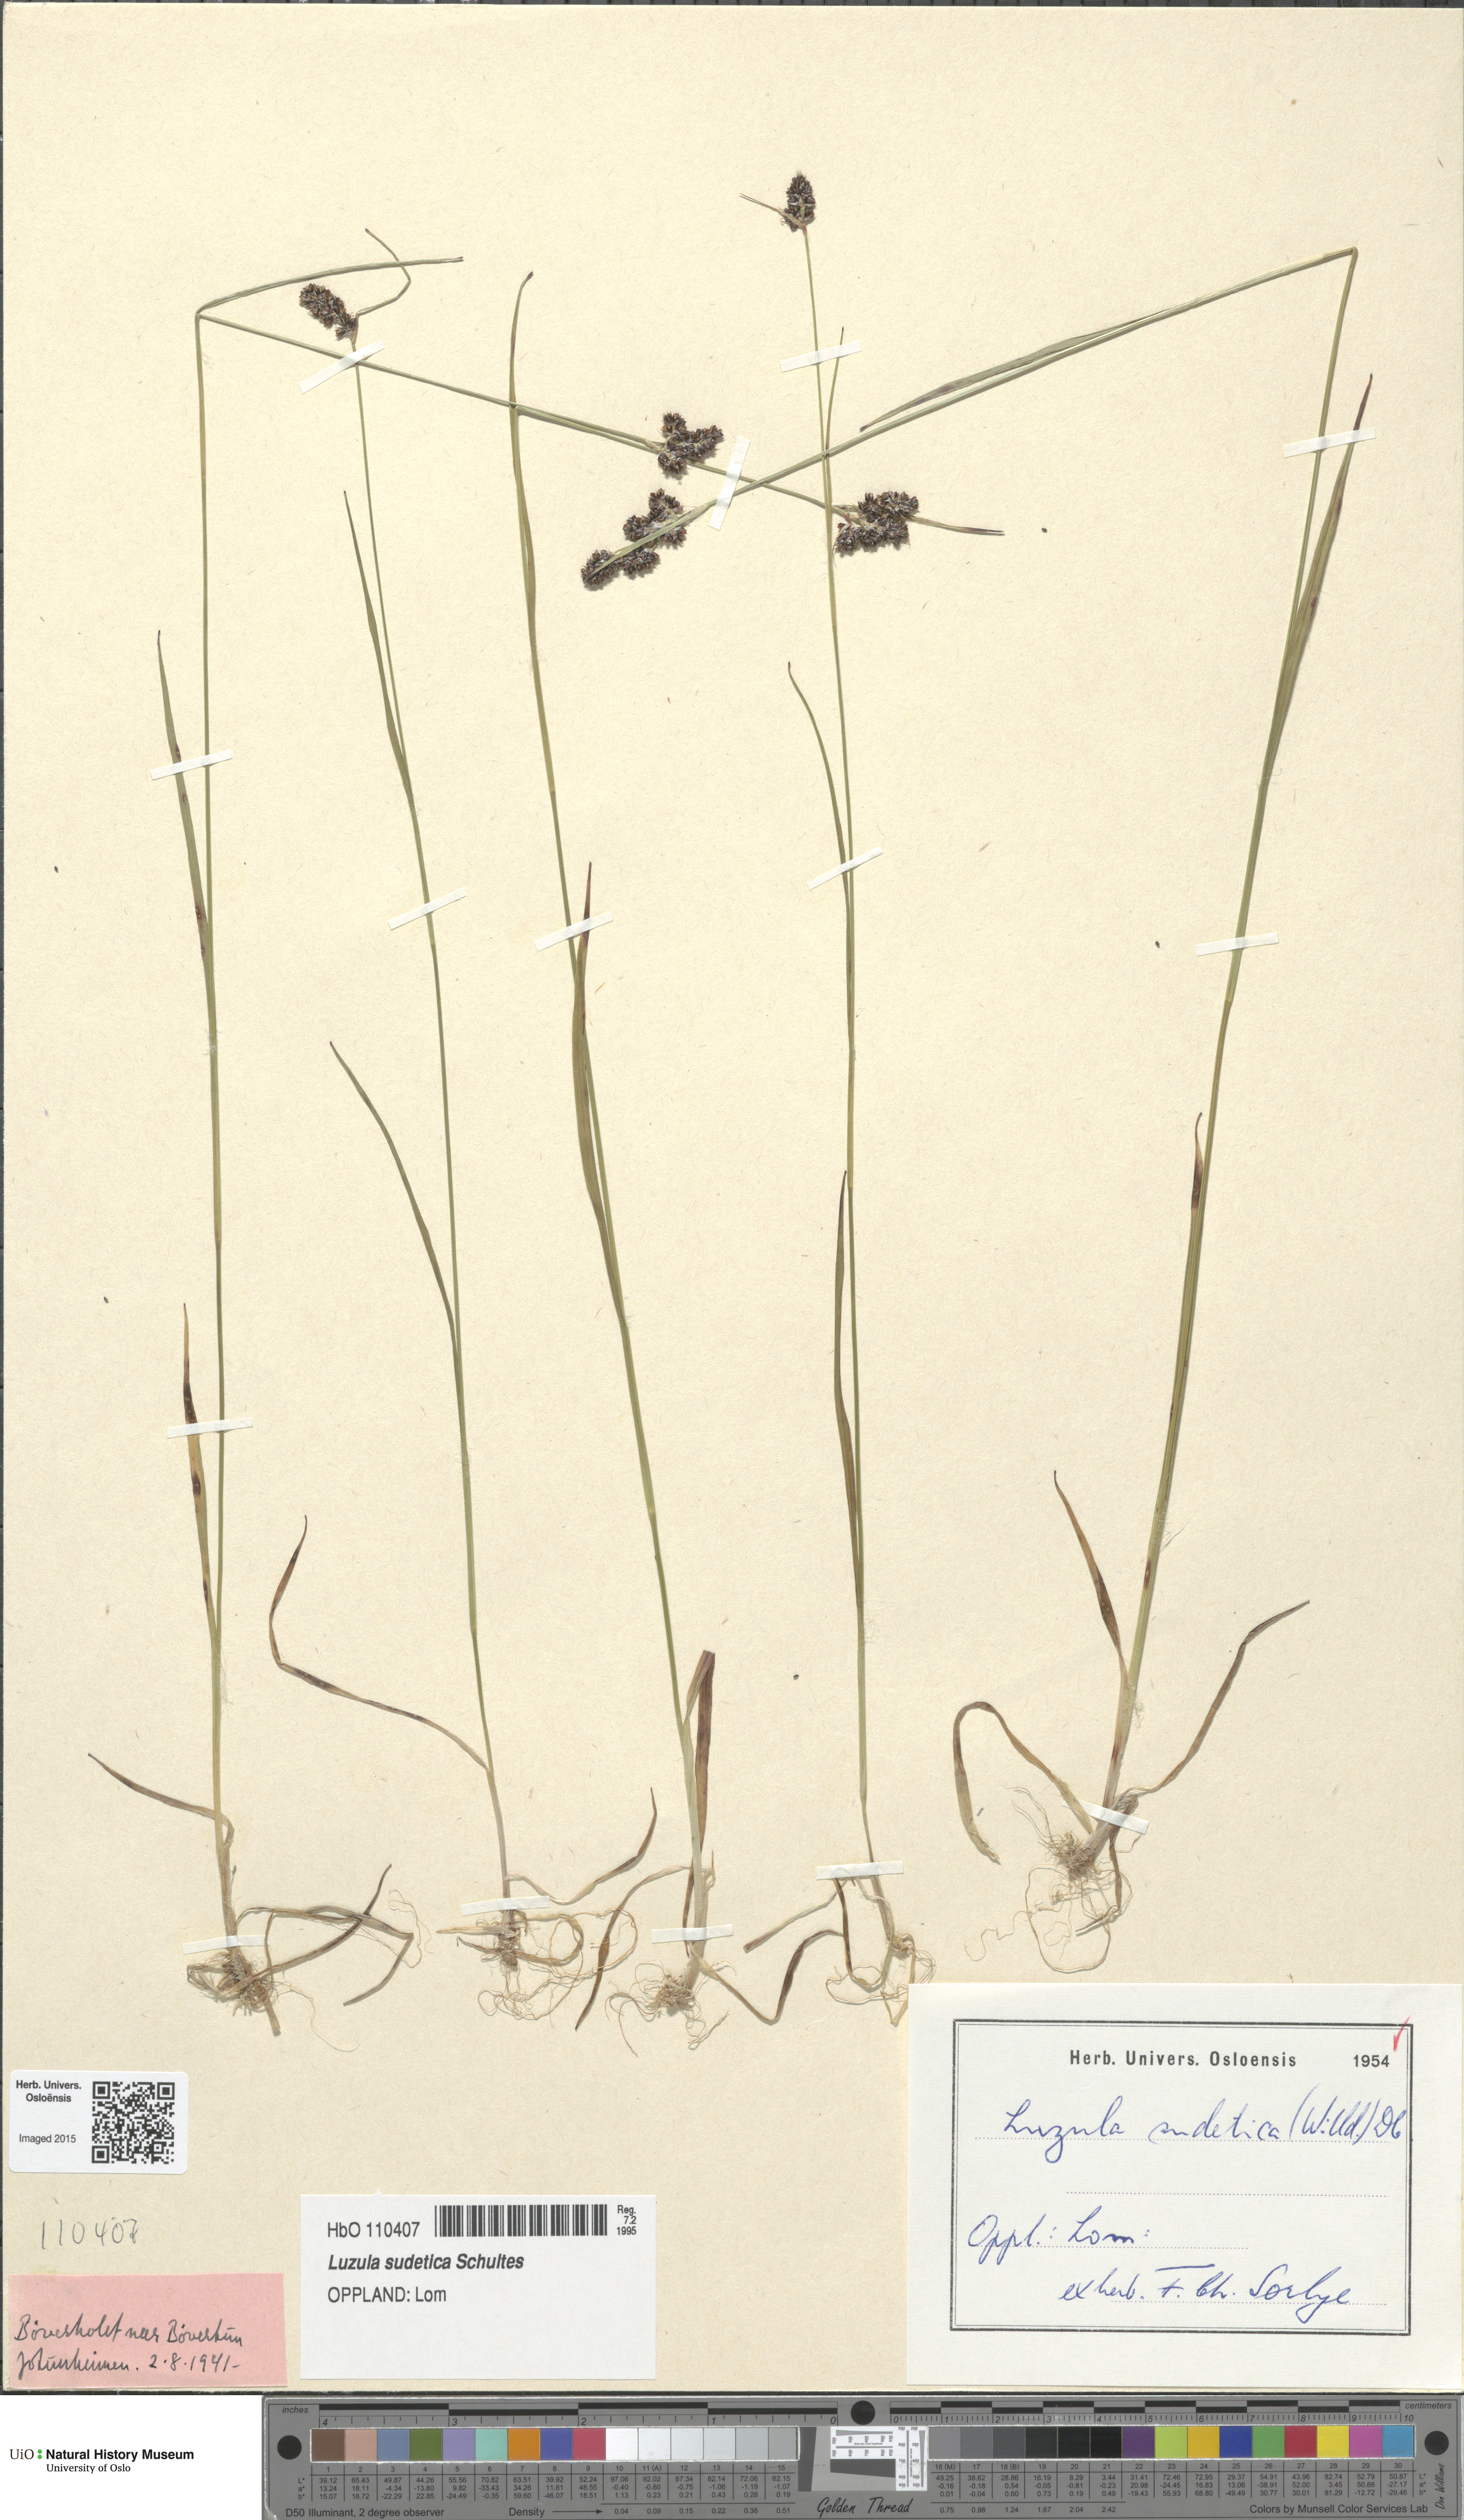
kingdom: Plantae
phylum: Tracheophyta
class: Liliopsida
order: Poales
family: Juncaceae
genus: Luzula
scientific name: Luzula sudetica
